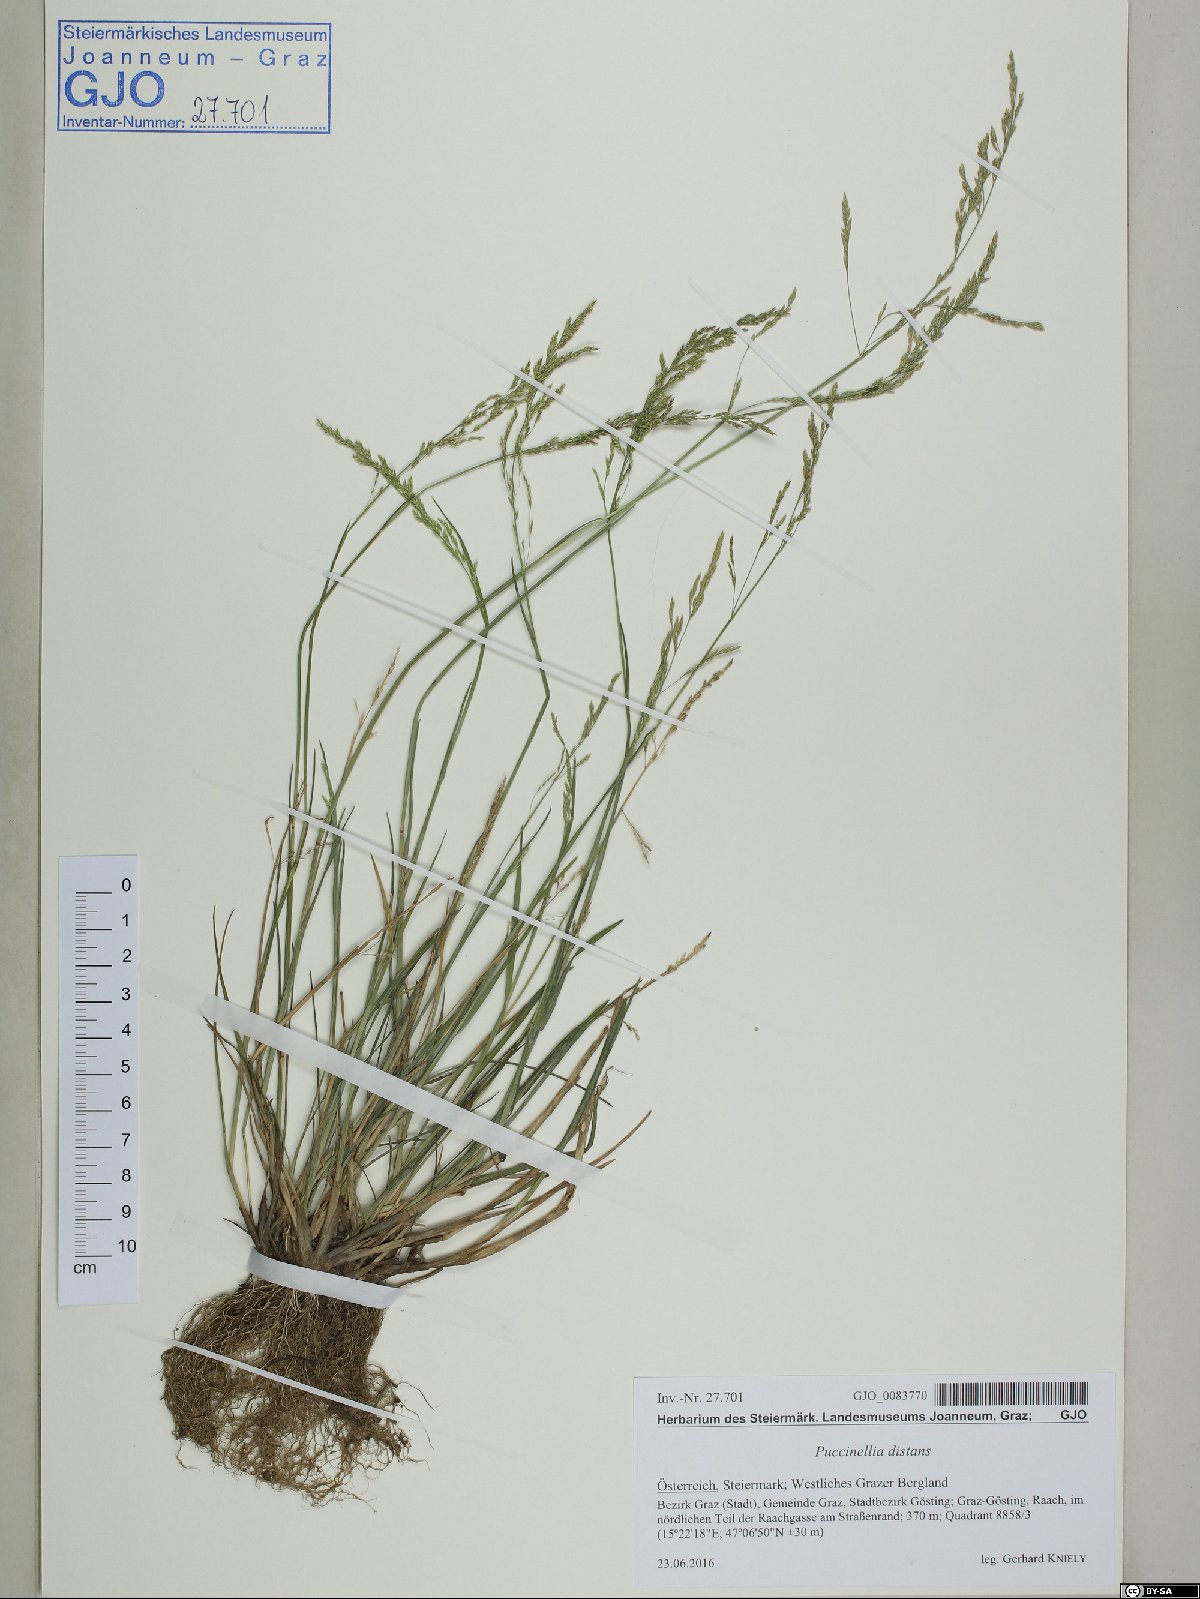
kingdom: Plantae
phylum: Tracheophyta
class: Liliopsida
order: Poales
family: Poaceae
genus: Puccinellia
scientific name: Puccinellia distans
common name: Weeping alkaligrass
